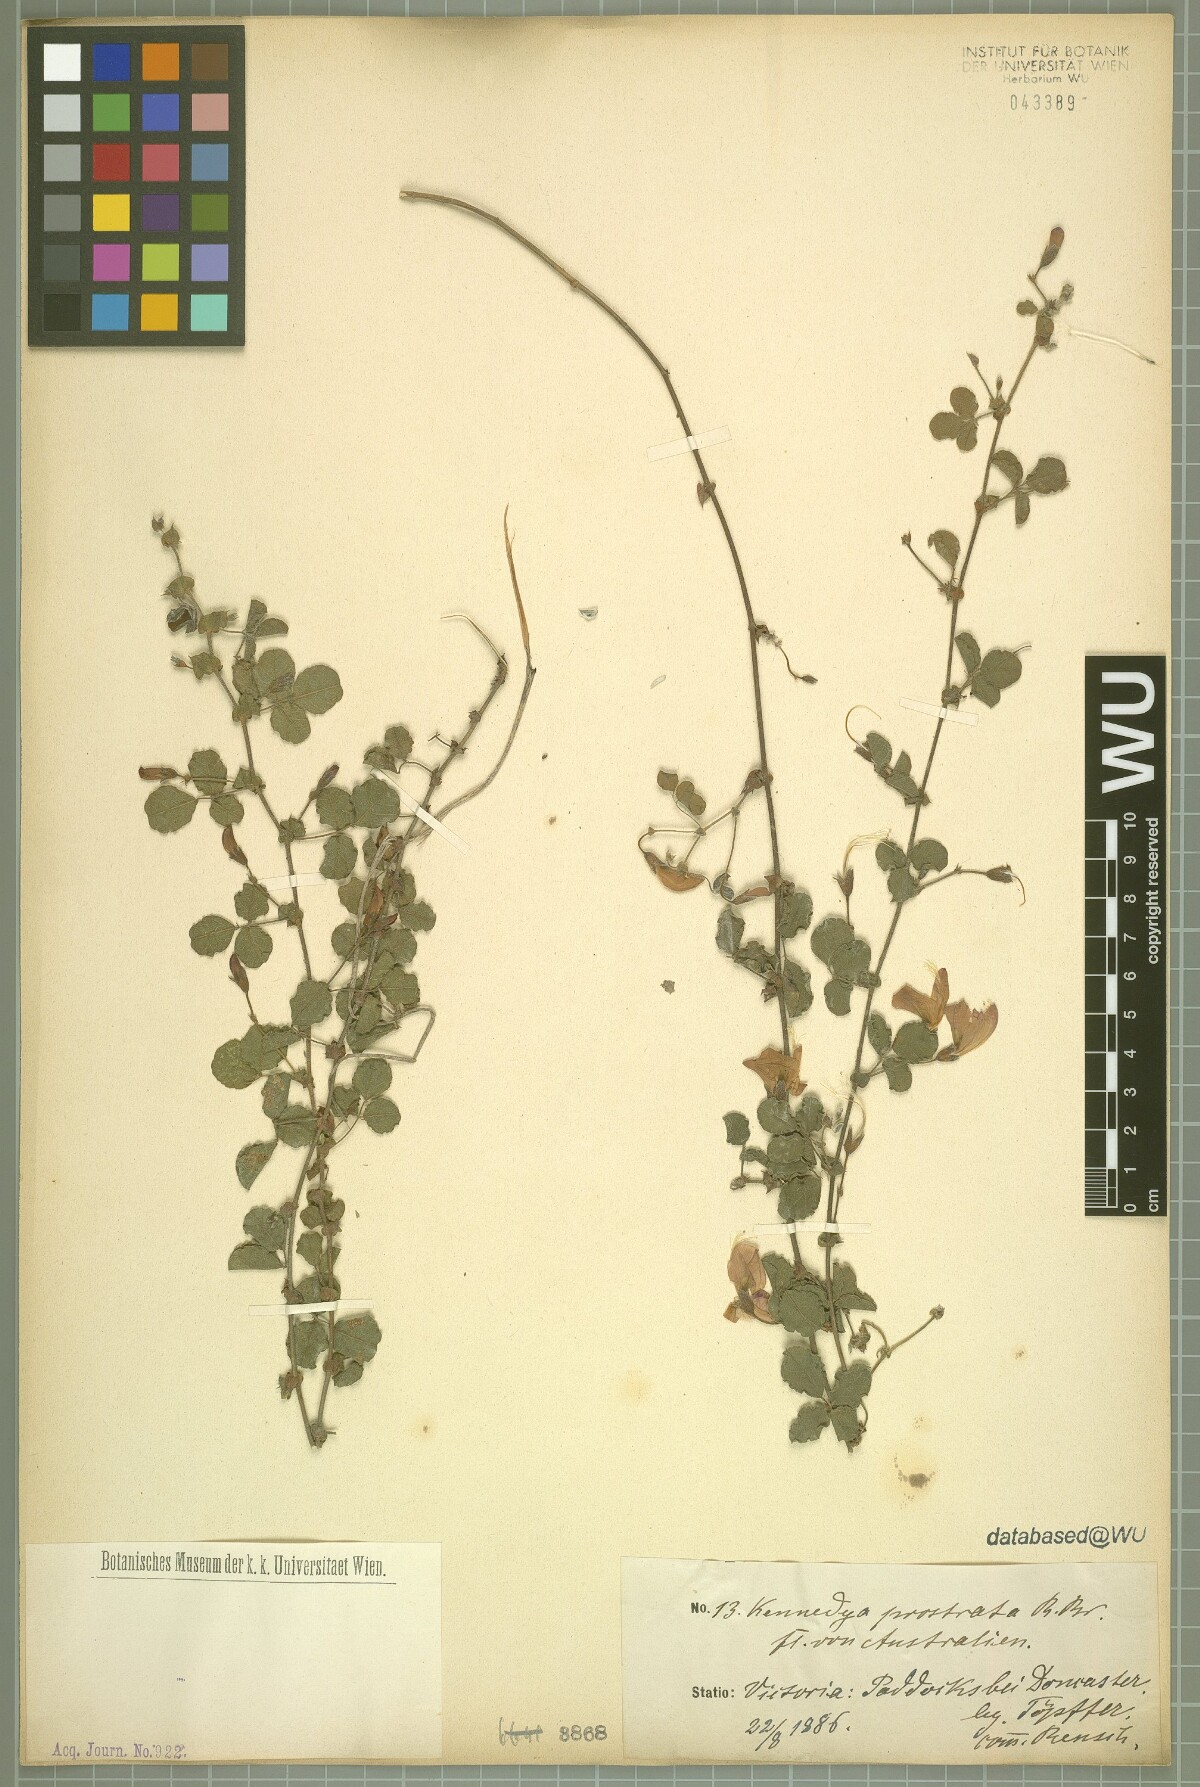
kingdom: Plantae
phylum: Tracheophyta
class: Magnoliopsida
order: Fabales
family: Fabaceae
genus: Kennedia
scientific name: Kennedia prostrata
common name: Running-postman
